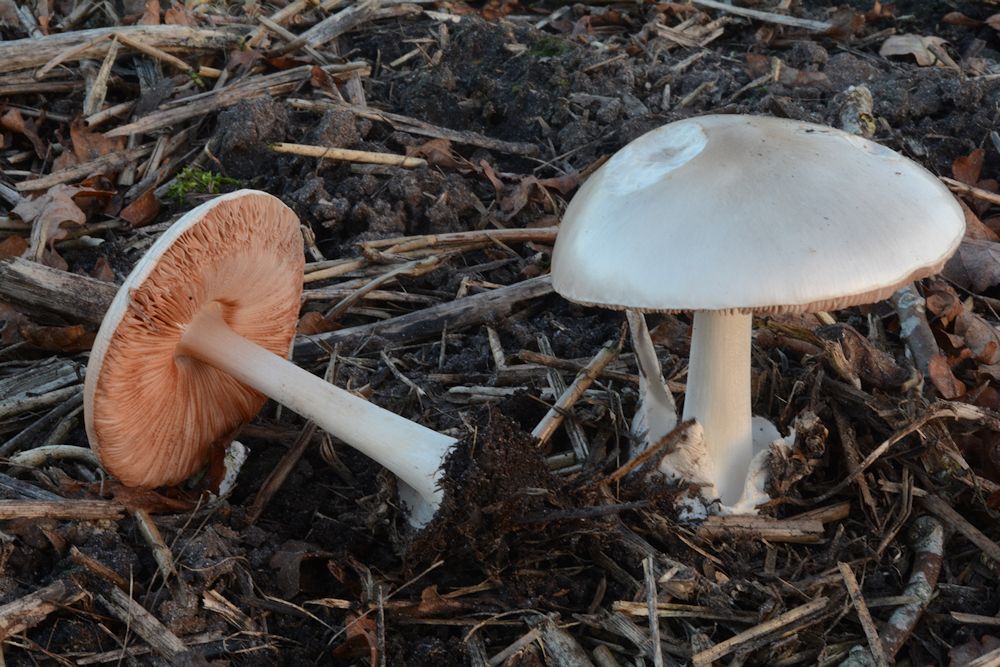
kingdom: Fungi
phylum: Basidiomycota
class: Agaricomycetes
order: Agaricales
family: Pluteaceae
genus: Volvopluteus
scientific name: Volvopluteus gloiocephalus
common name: høj posesvamp
